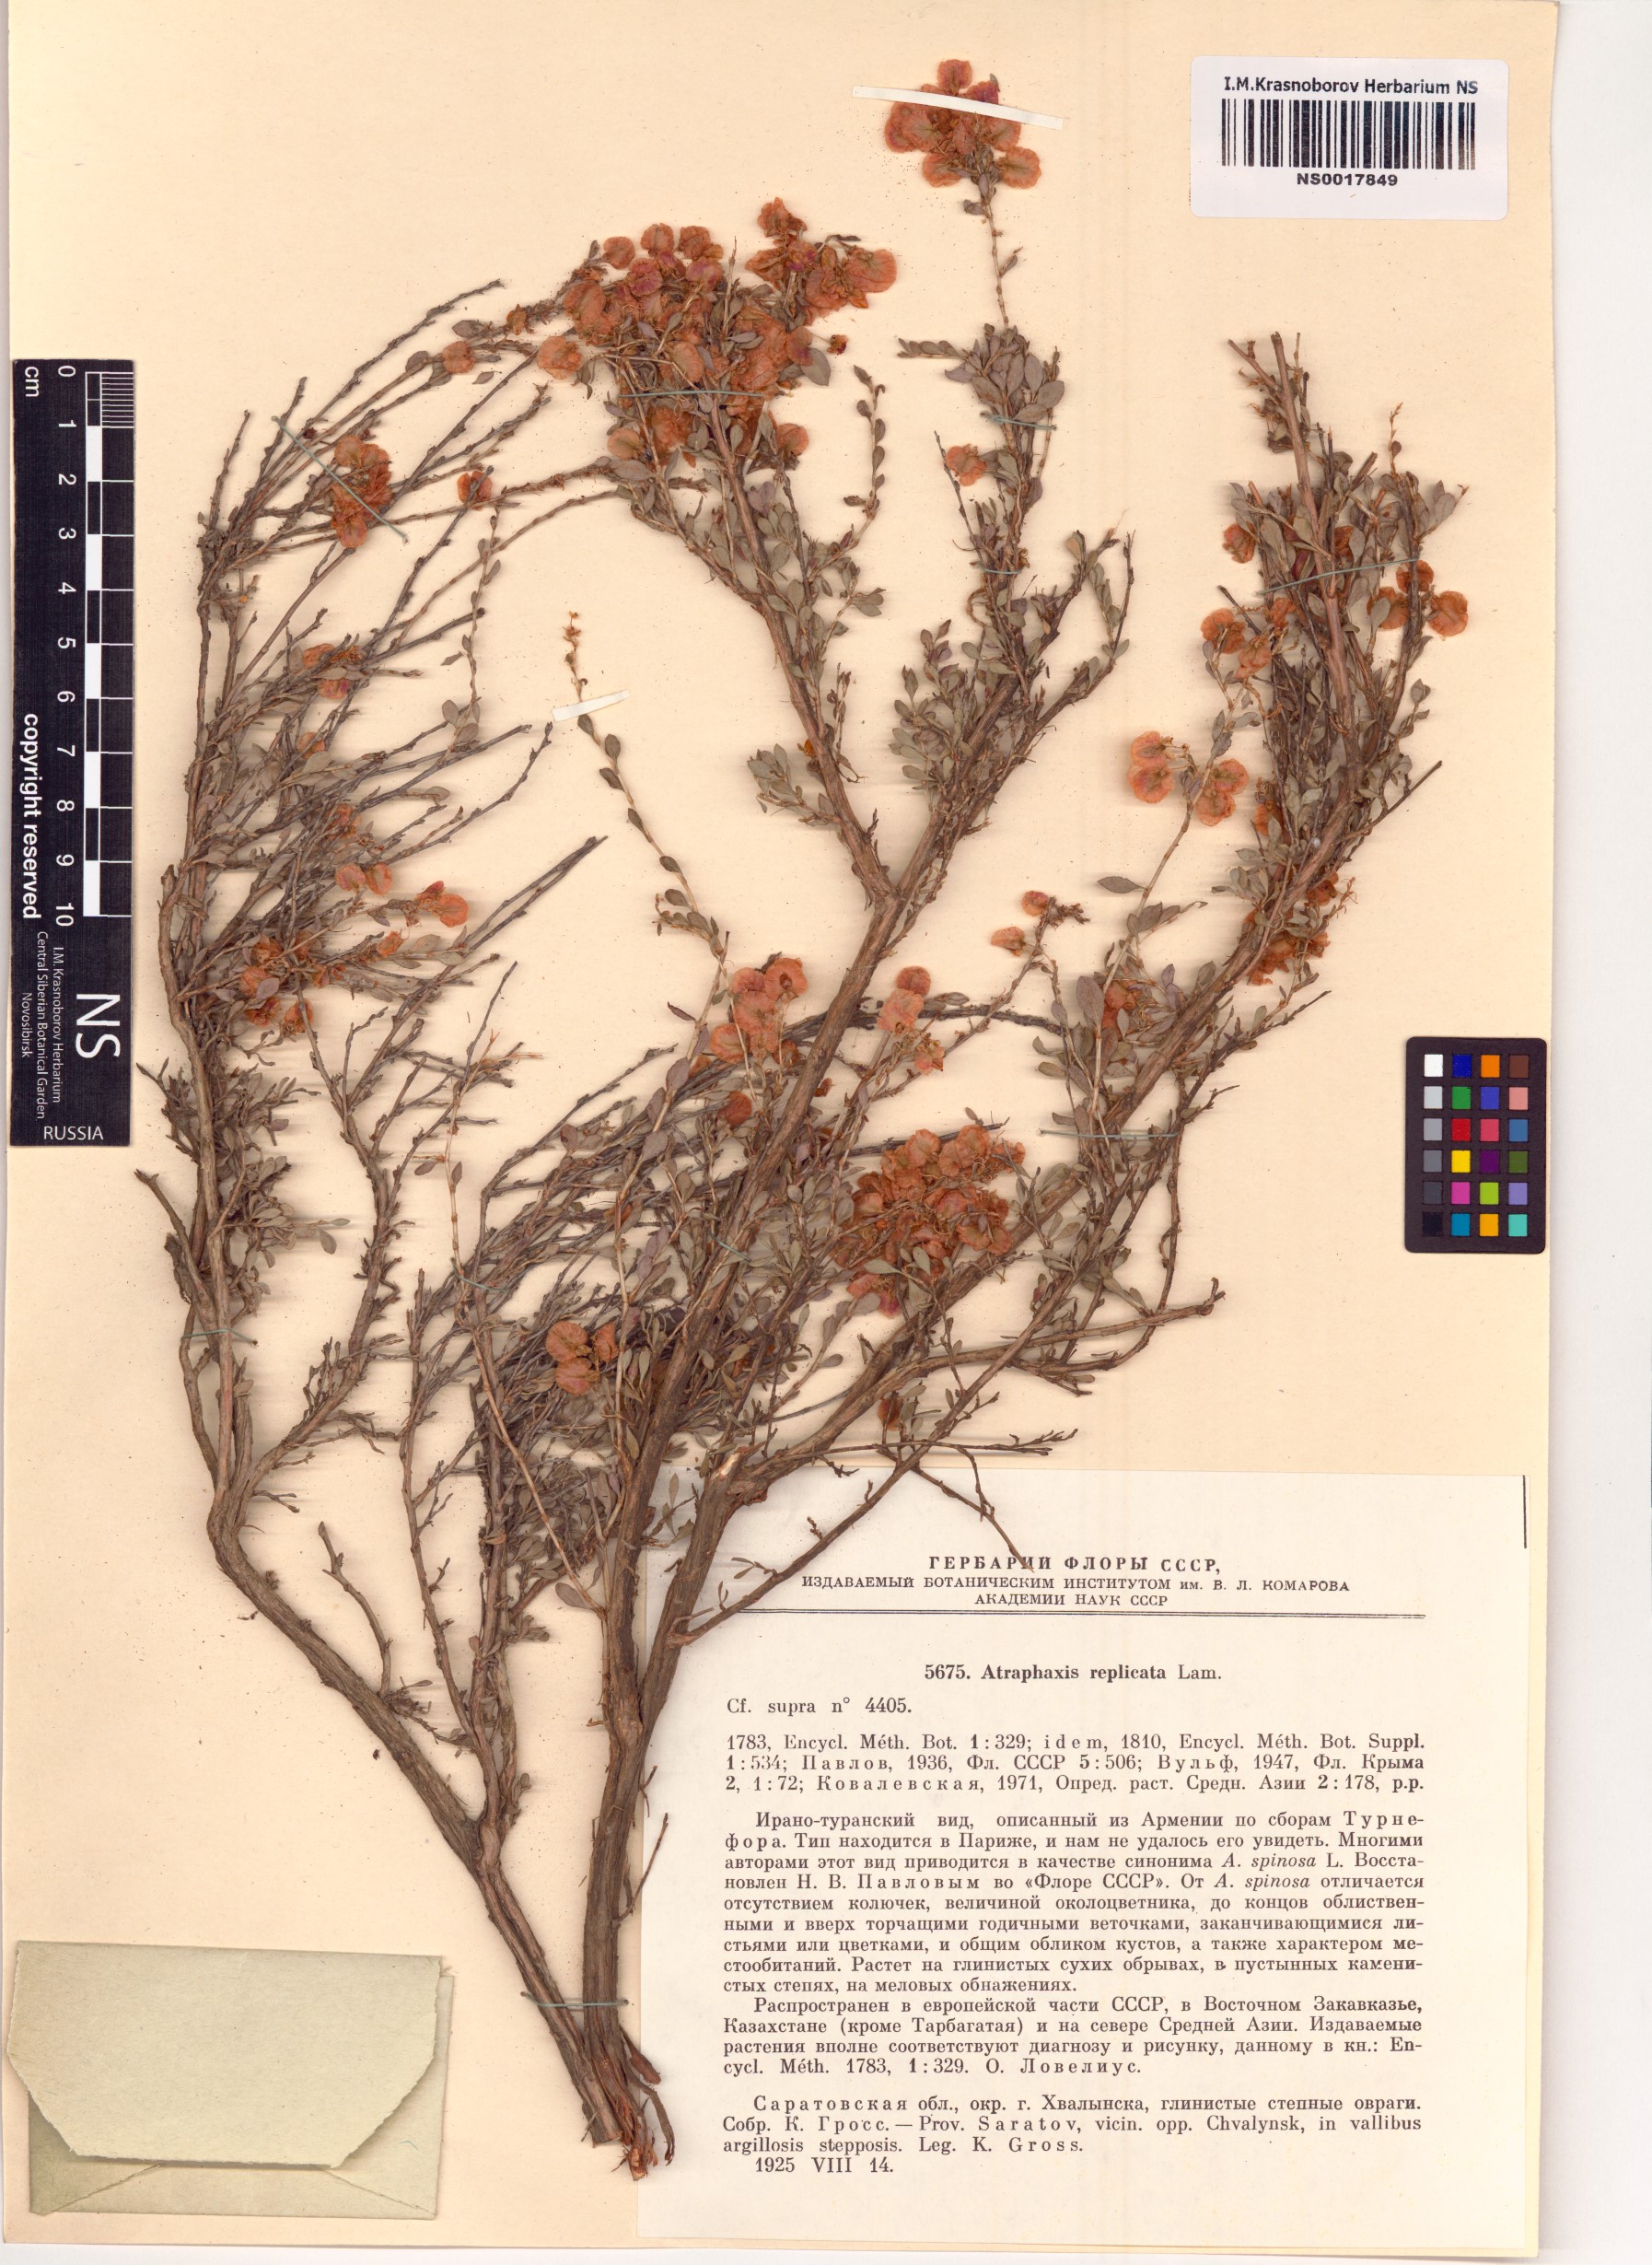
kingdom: Plantae
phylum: Tracheophyta
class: Magnoliopsida
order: Caryophyllales
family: Polygonaceae
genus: Atraphaxis
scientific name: Atraphaxis replicata
